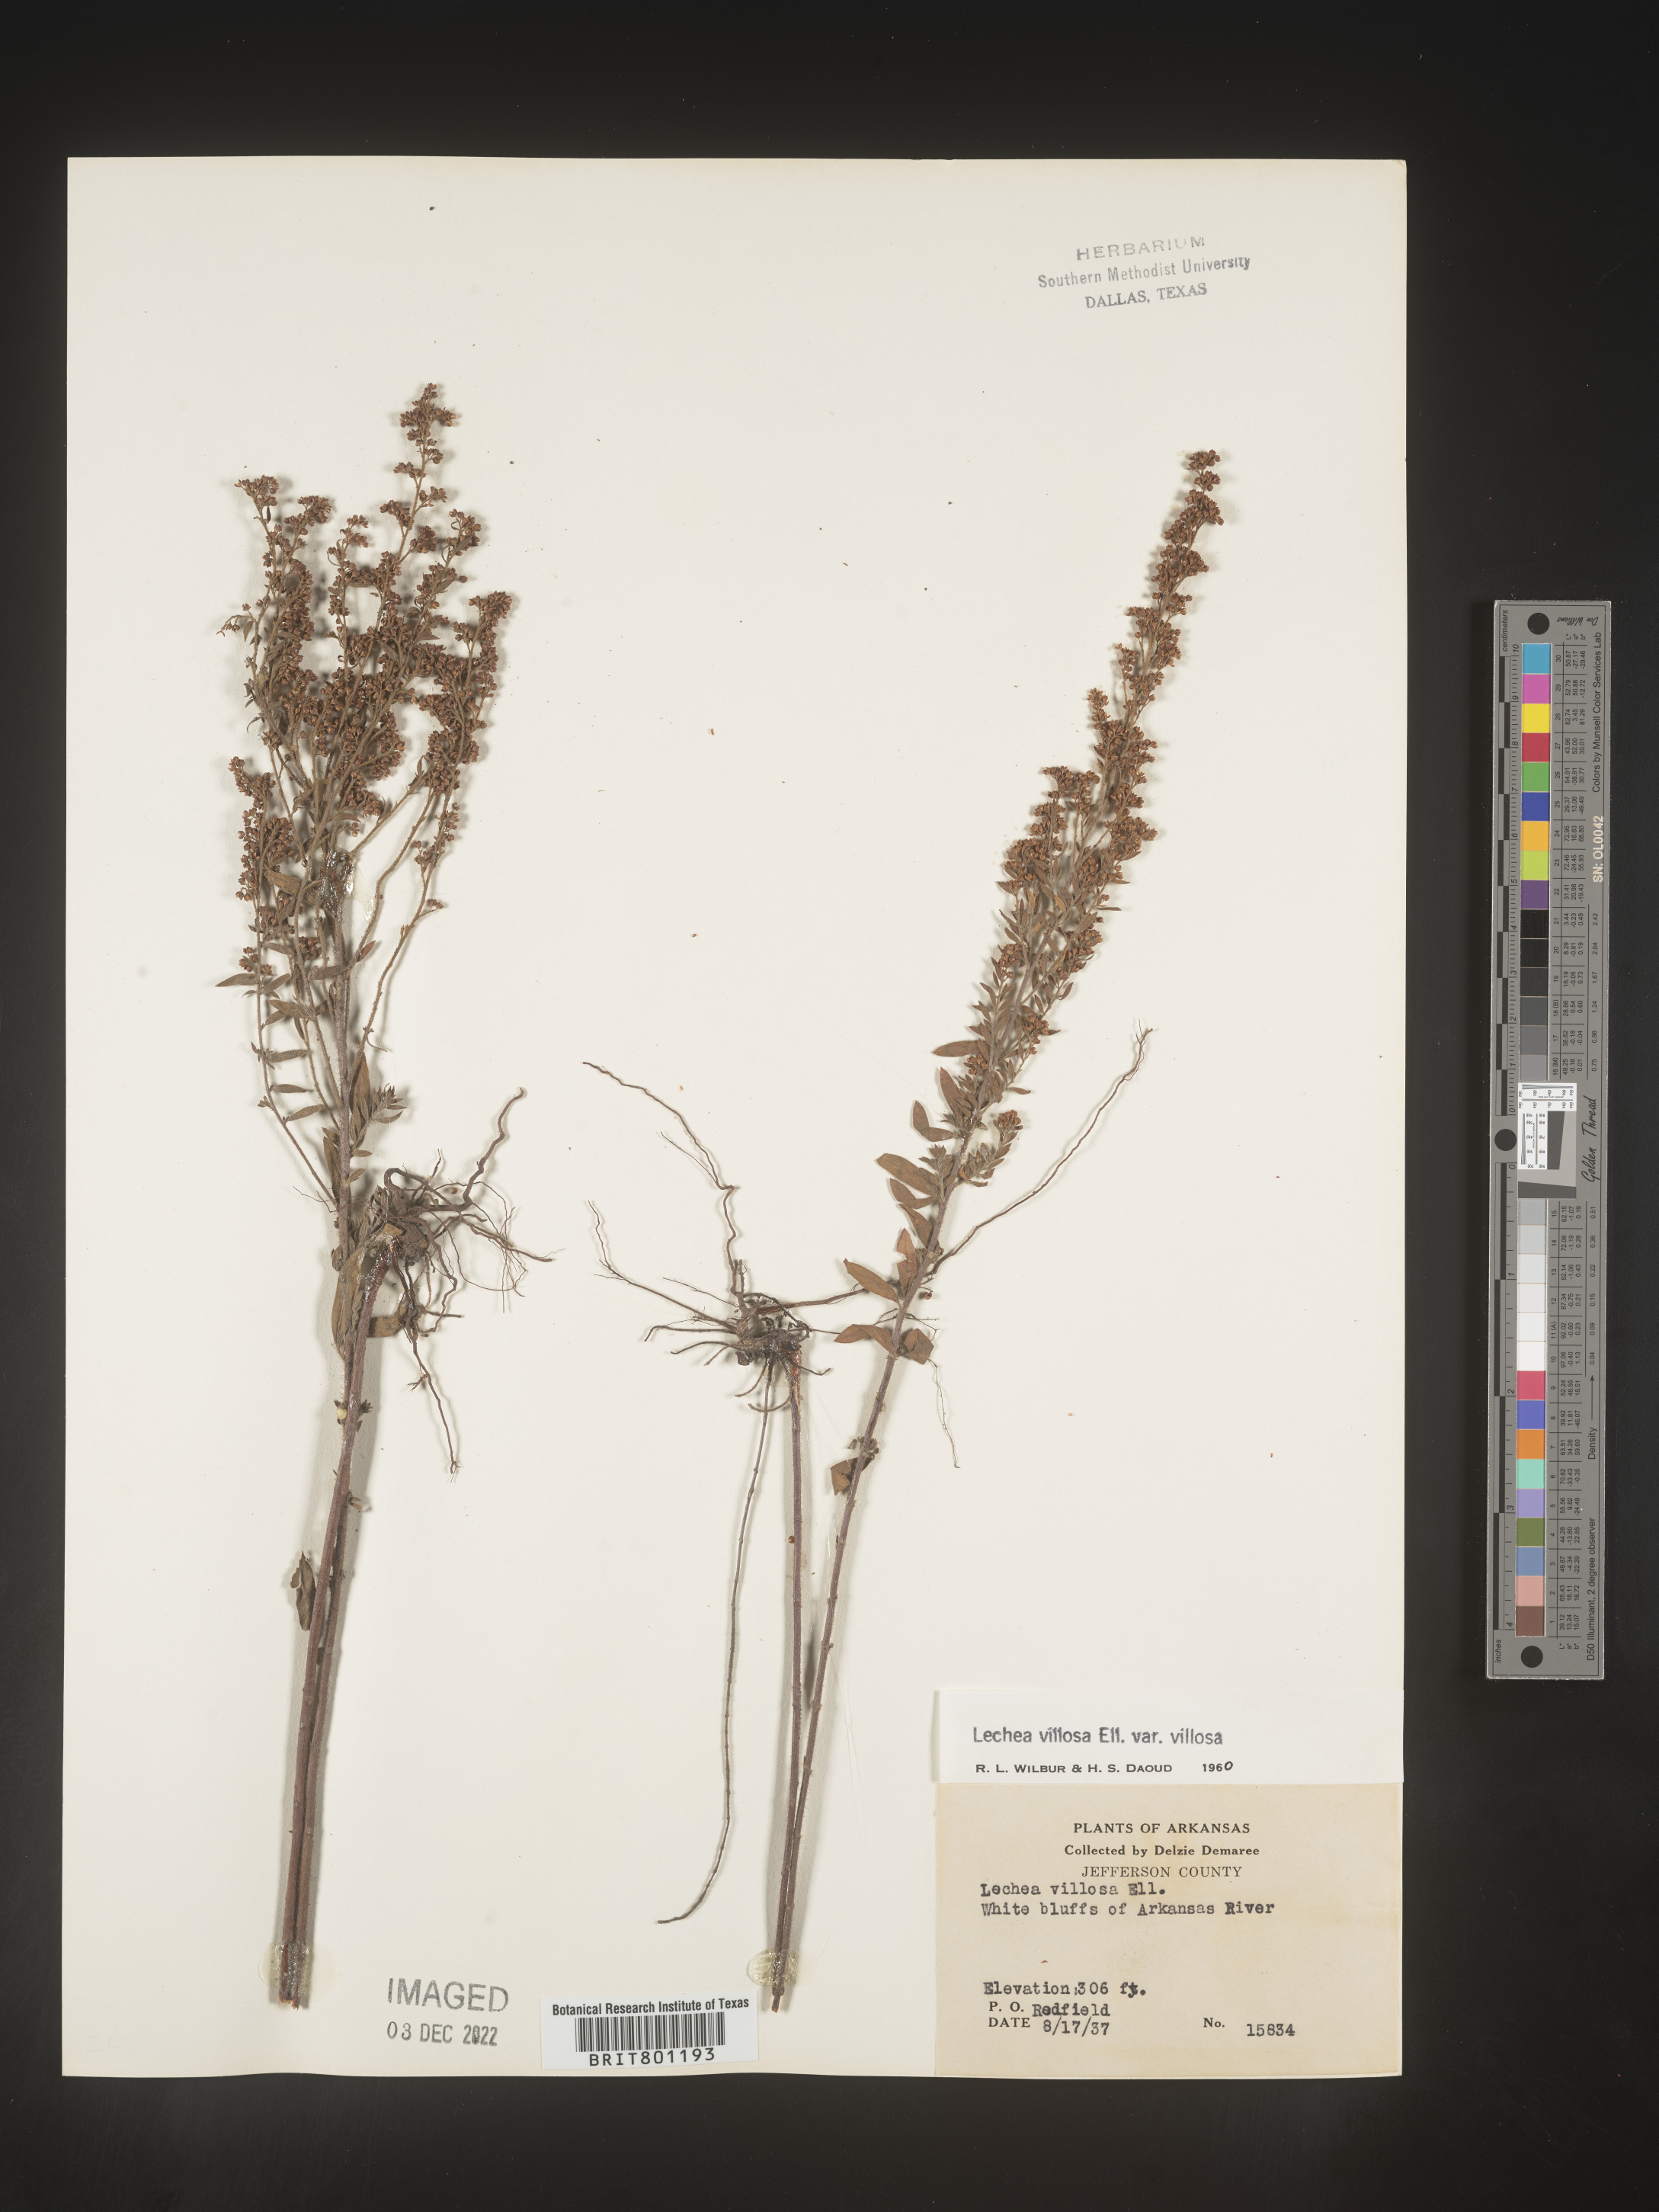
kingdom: Plantae
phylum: Tracheophyta
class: Magnoliopsida
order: Malvales
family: Cistaceae
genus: Lechea
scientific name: Lechea mucronata
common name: Hairy pinweed
